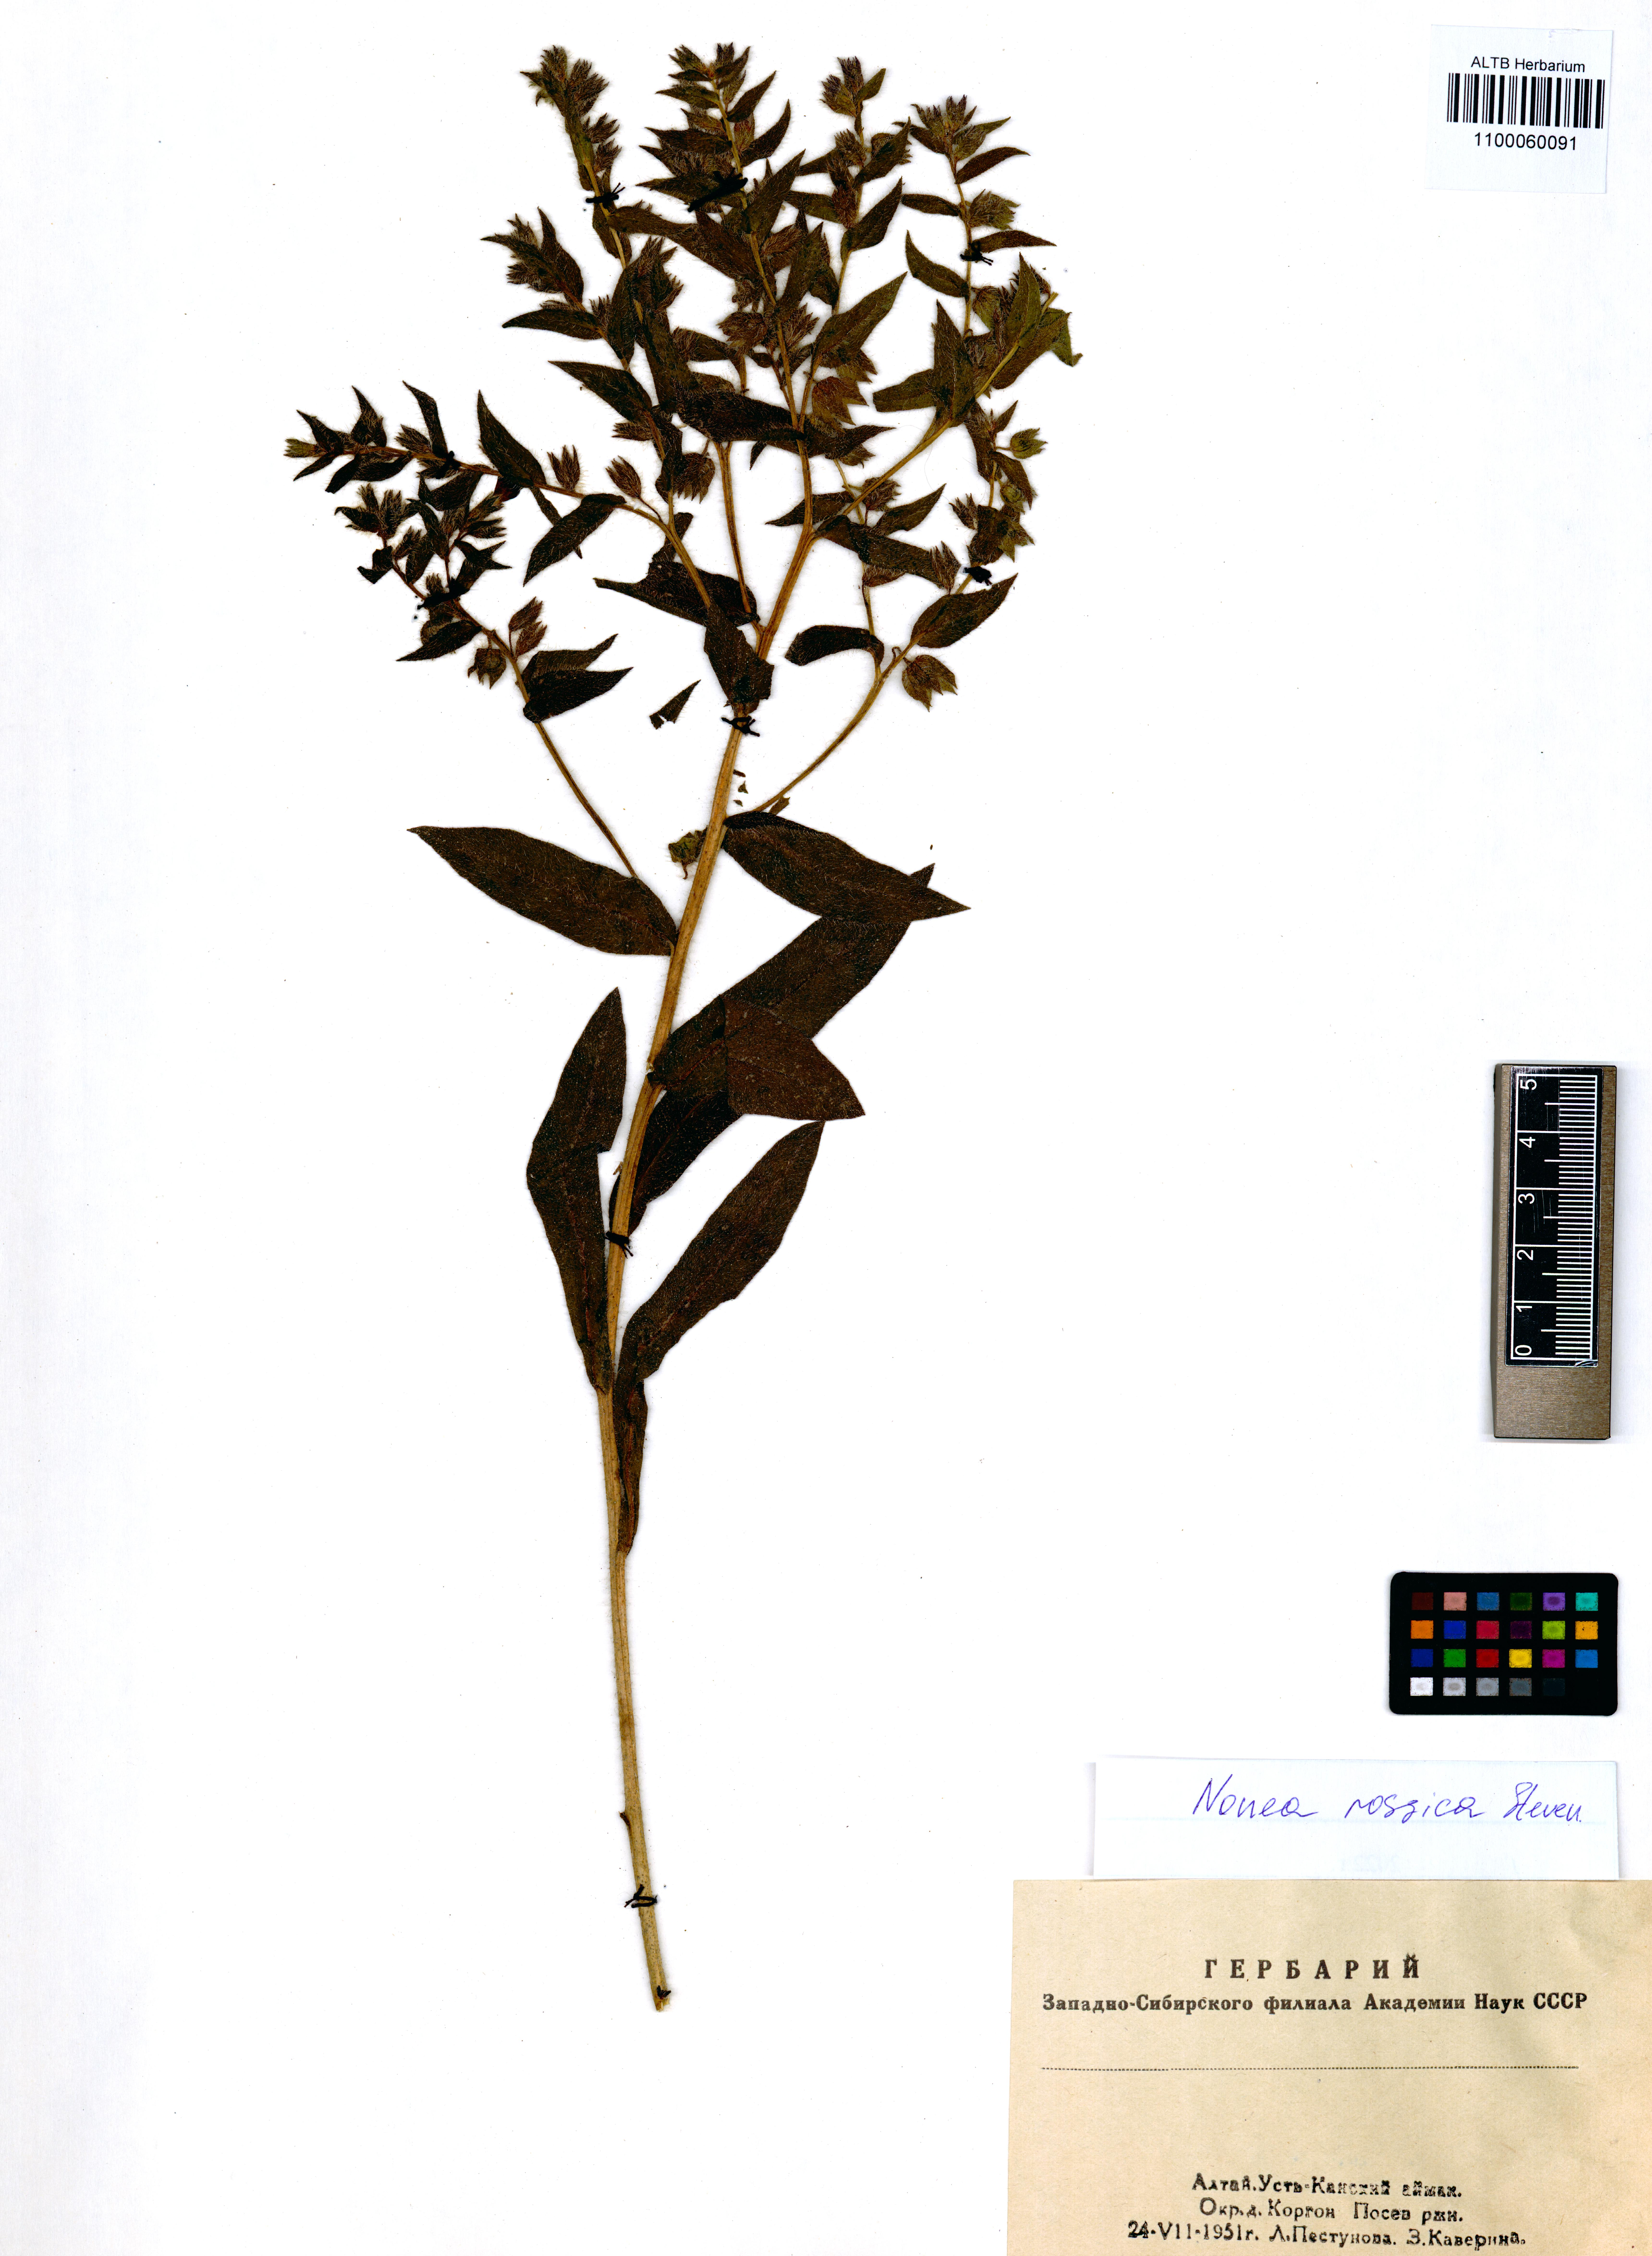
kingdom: Plantae
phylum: Tracheophyta
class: Magnoliopsida
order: Boraginales
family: Boraginaceae
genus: Nonea
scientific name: Nonea pulla
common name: Brown nonea
